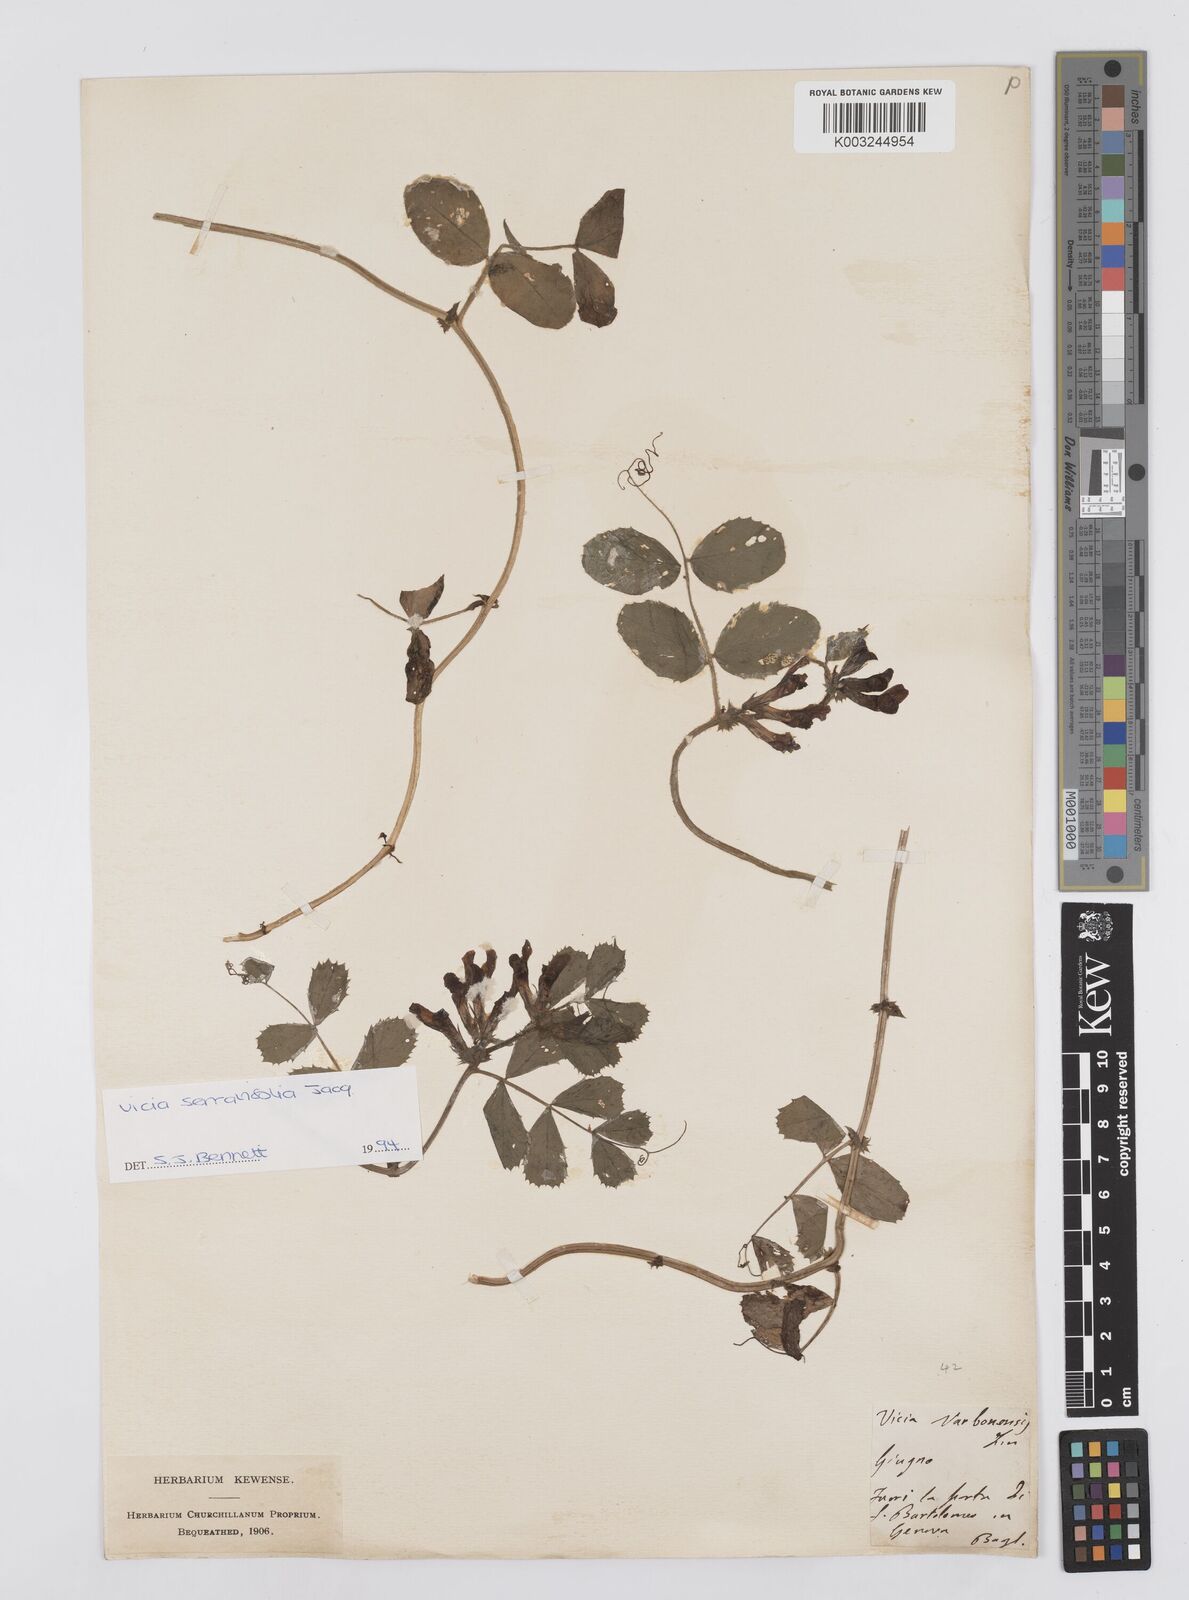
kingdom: Plantae
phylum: Tracheophyta
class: Magnoliopsida
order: Fabales
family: Fabaceae
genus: Vicia
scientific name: Vicia serratifolia
